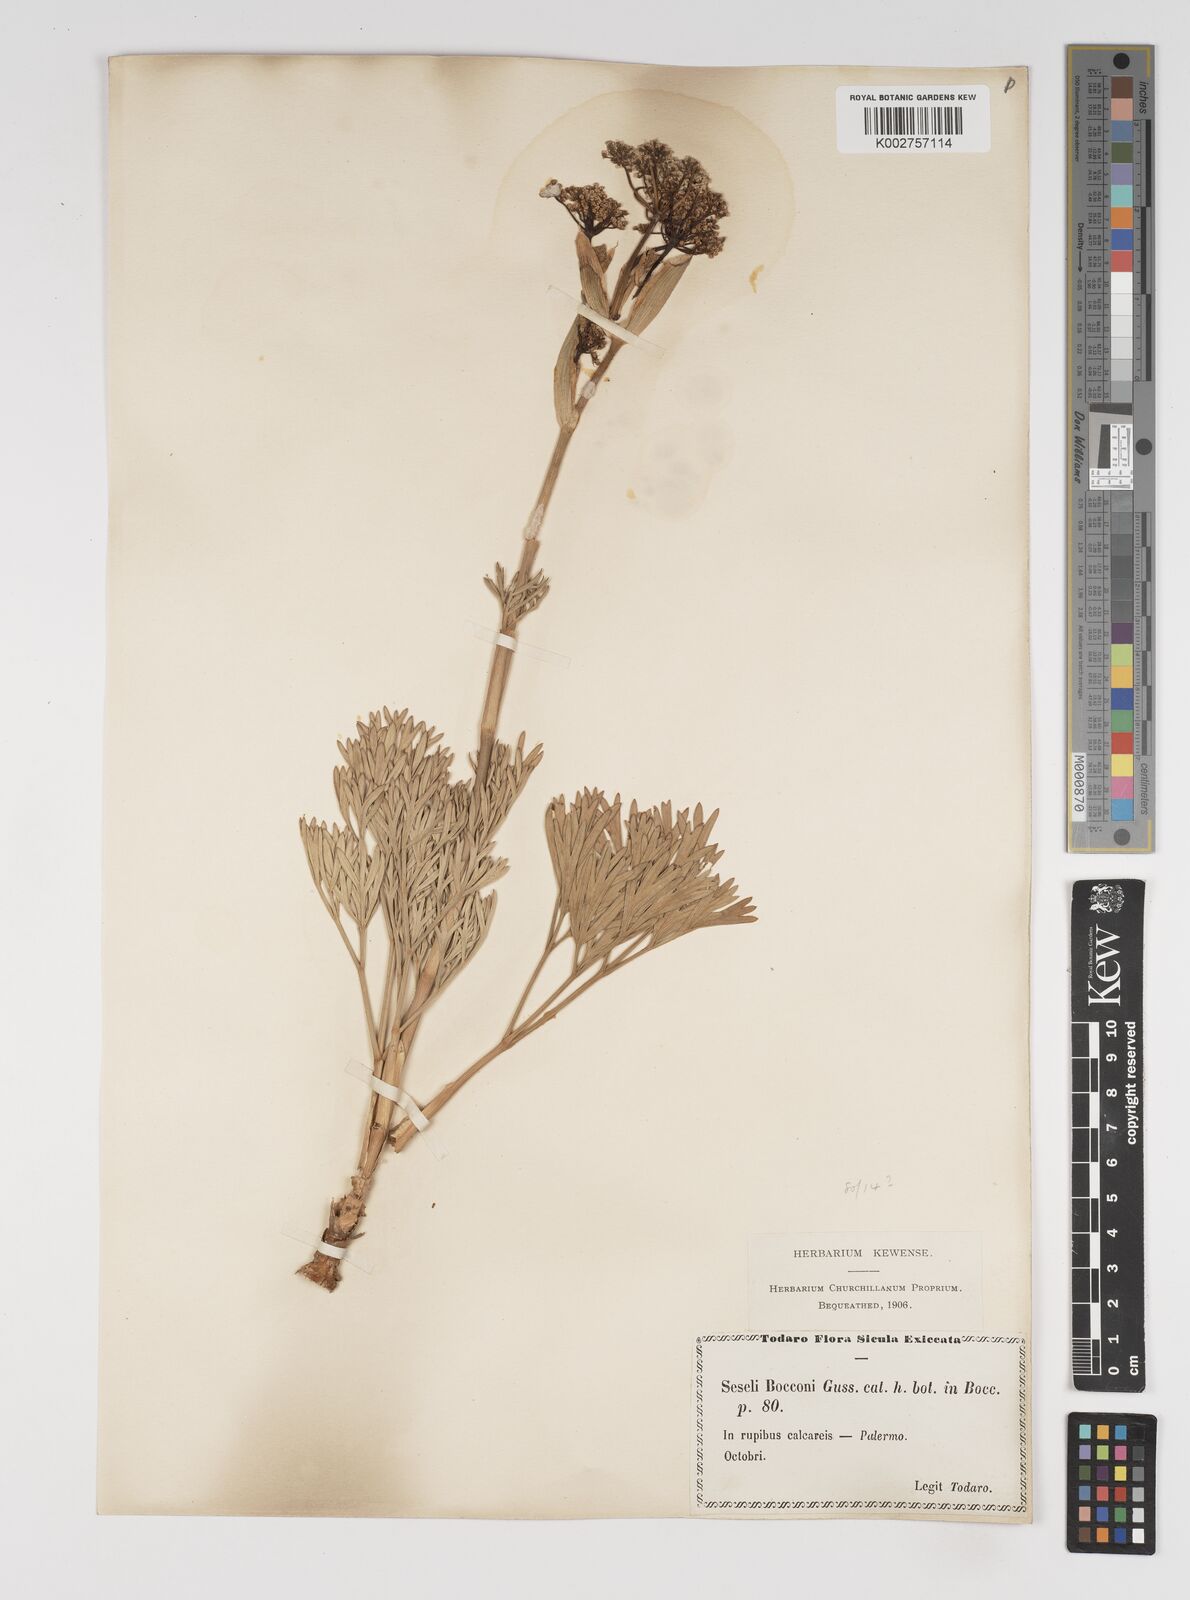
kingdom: Plantae
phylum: Tracheophyta
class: Magnoliopsida
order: Apiales
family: Apiaceae
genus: Seseli
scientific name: Seseli bocconei
